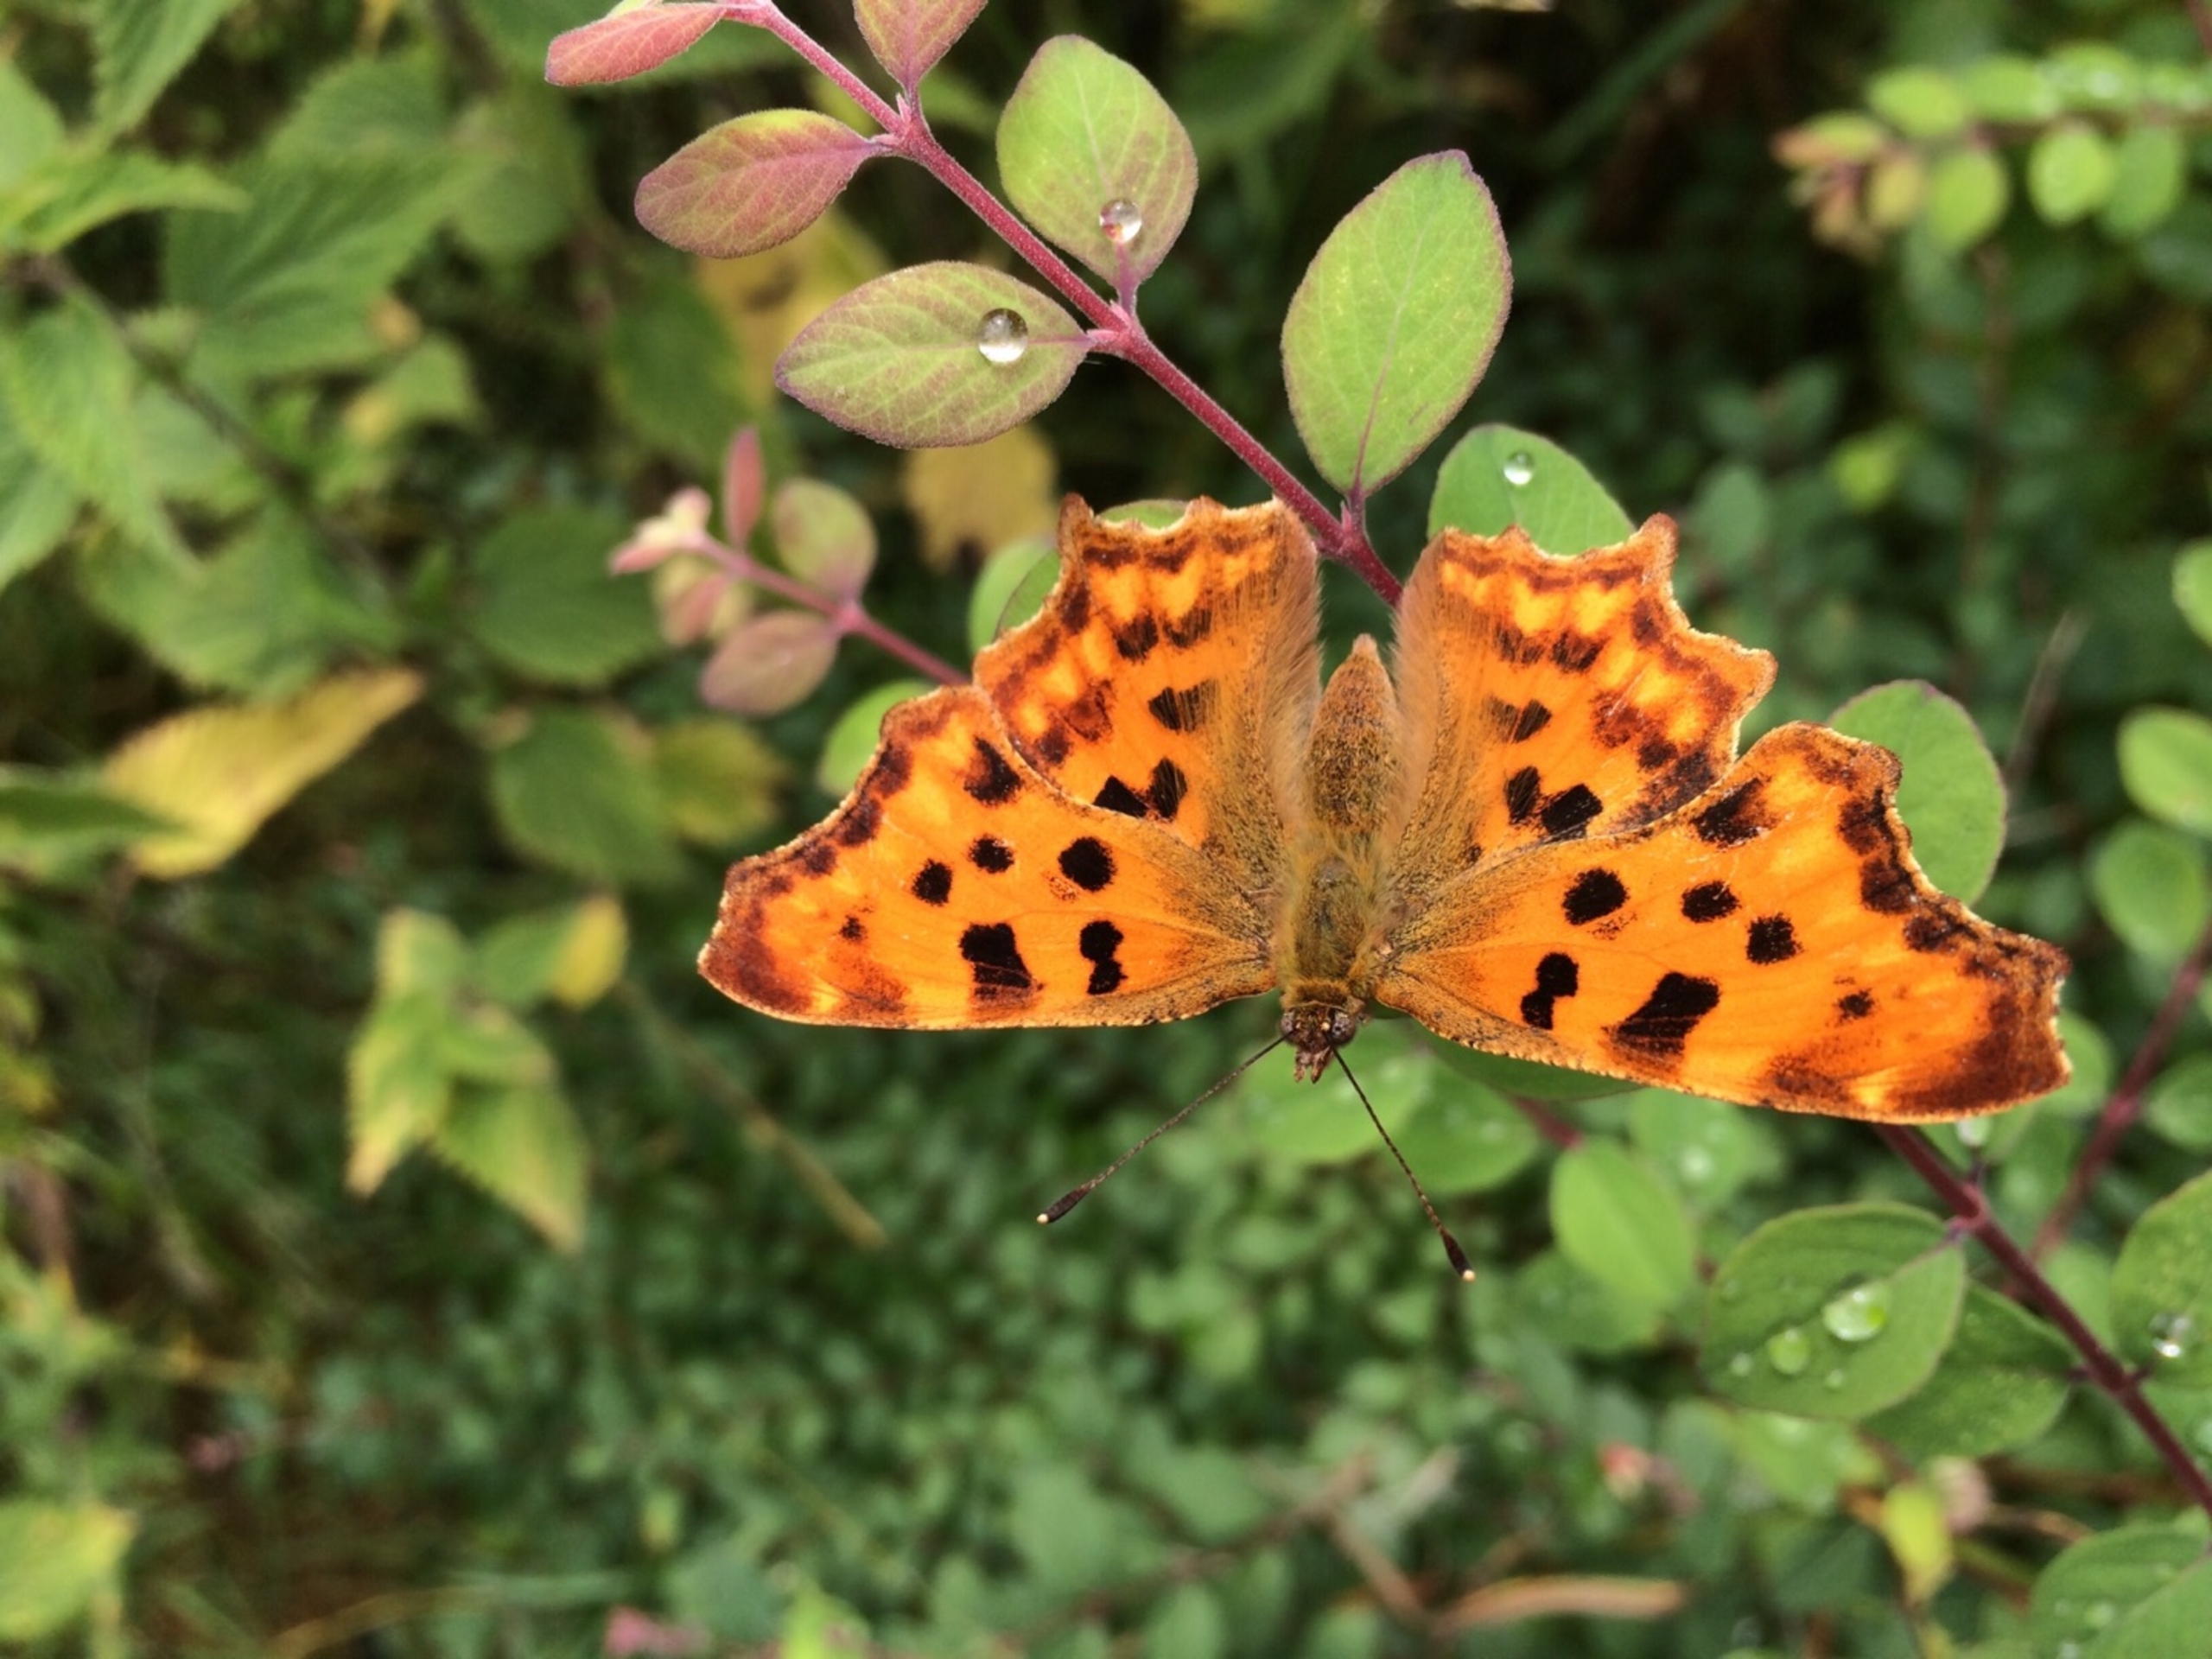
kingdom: Animalia
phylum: Arthropoda
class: Insecta
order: Lepidoptera
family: Nymphalidae
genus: Polygonia
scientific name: Polygonia c-album
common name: Det hvide C
